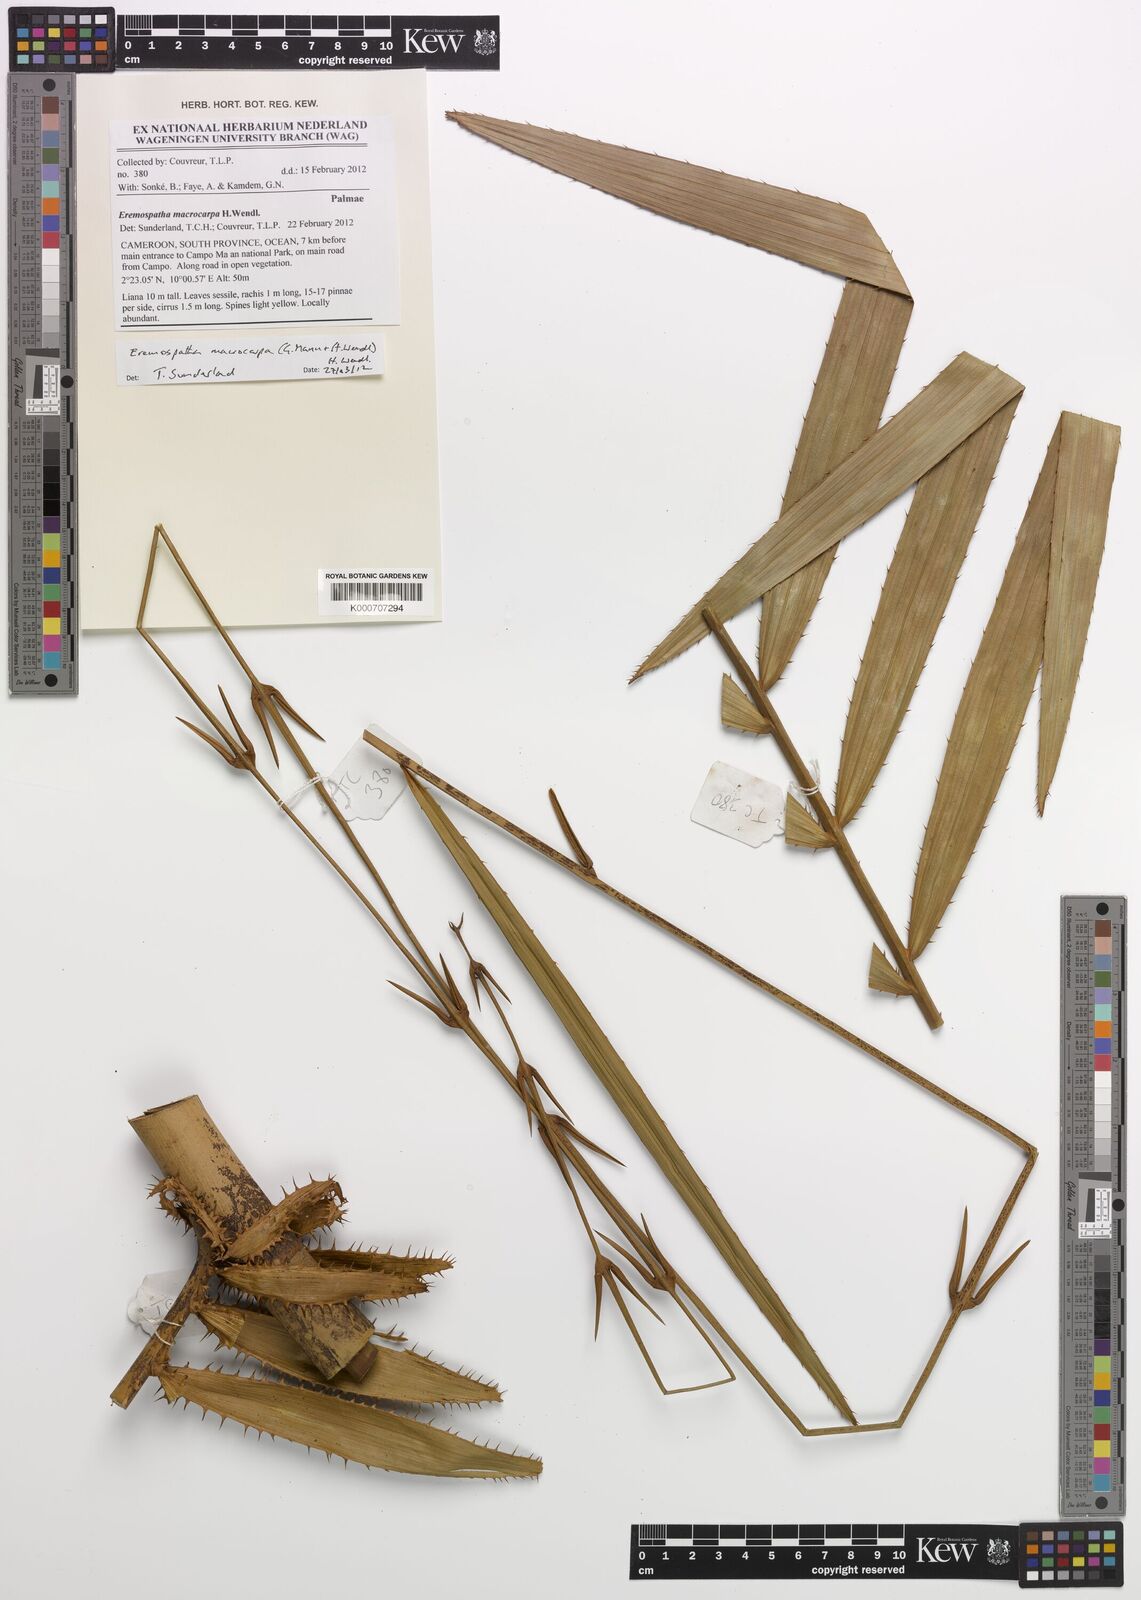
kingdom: Plantae
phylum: Tracheophyta
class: Liliopsida
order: Arecales
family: Arecaceae
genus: Eremospatha
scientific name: Eremospatha macrocarpa
